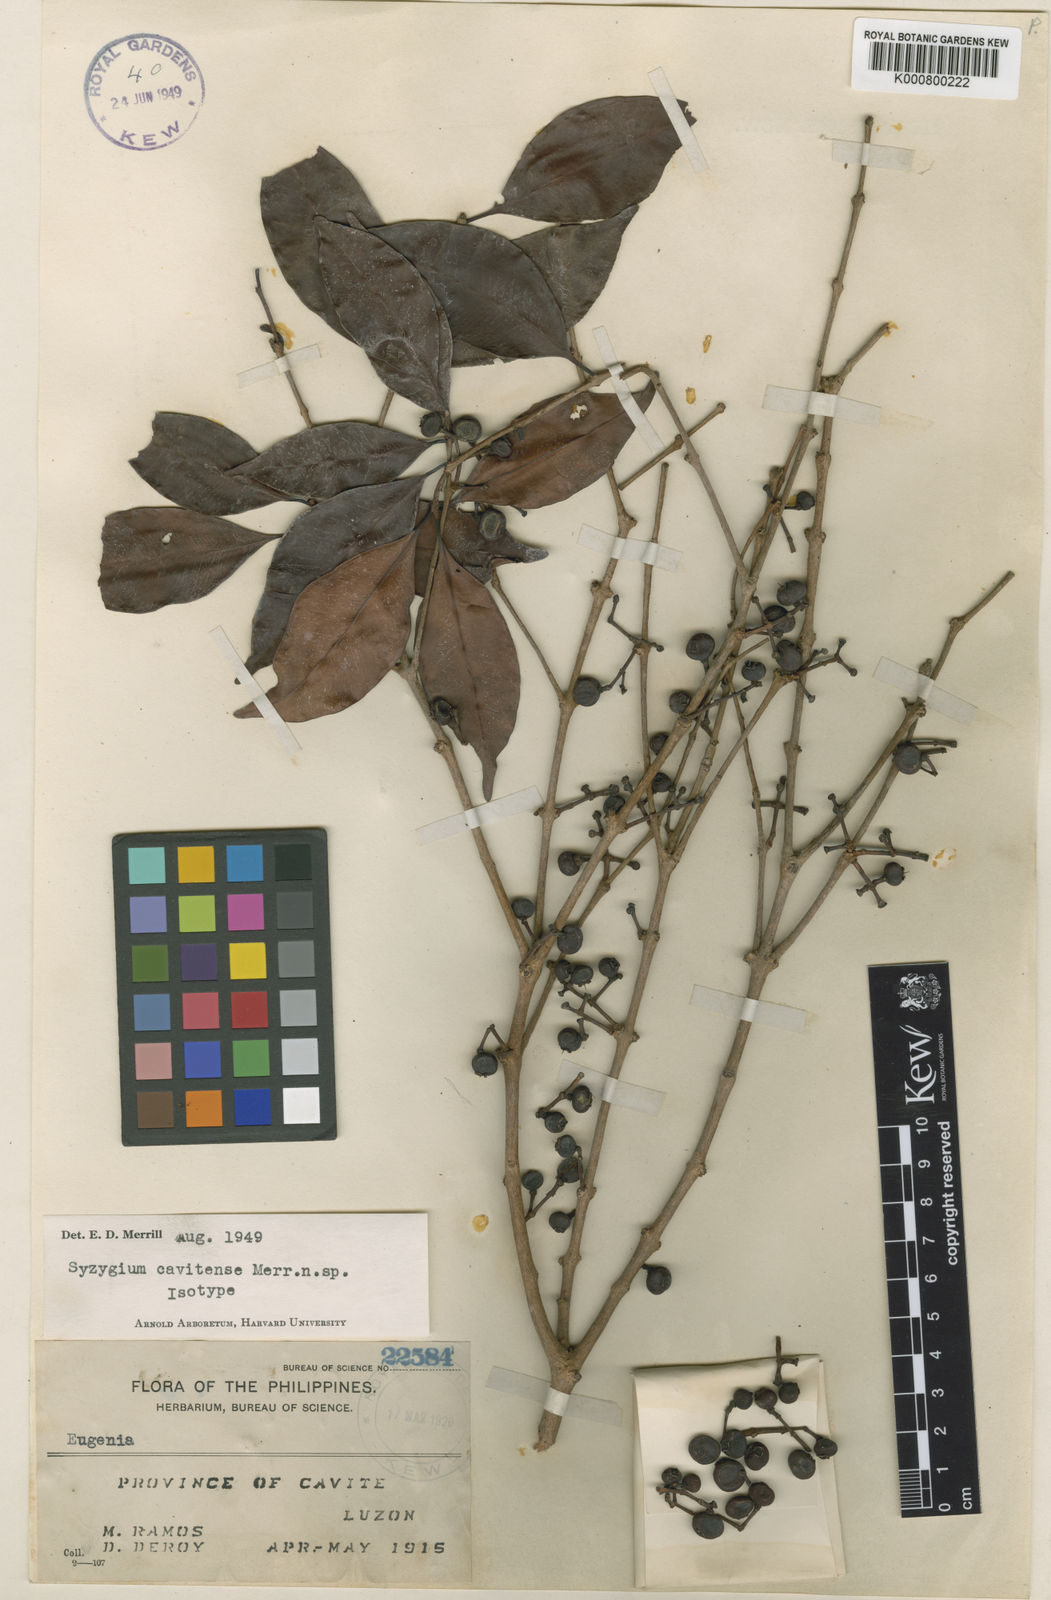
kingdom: Plantae
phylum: Tracheophyta
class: Magnoliopsida
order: Myrtales
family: Myrtaceae
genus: Syzygium
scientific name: Syzygium cavitense
